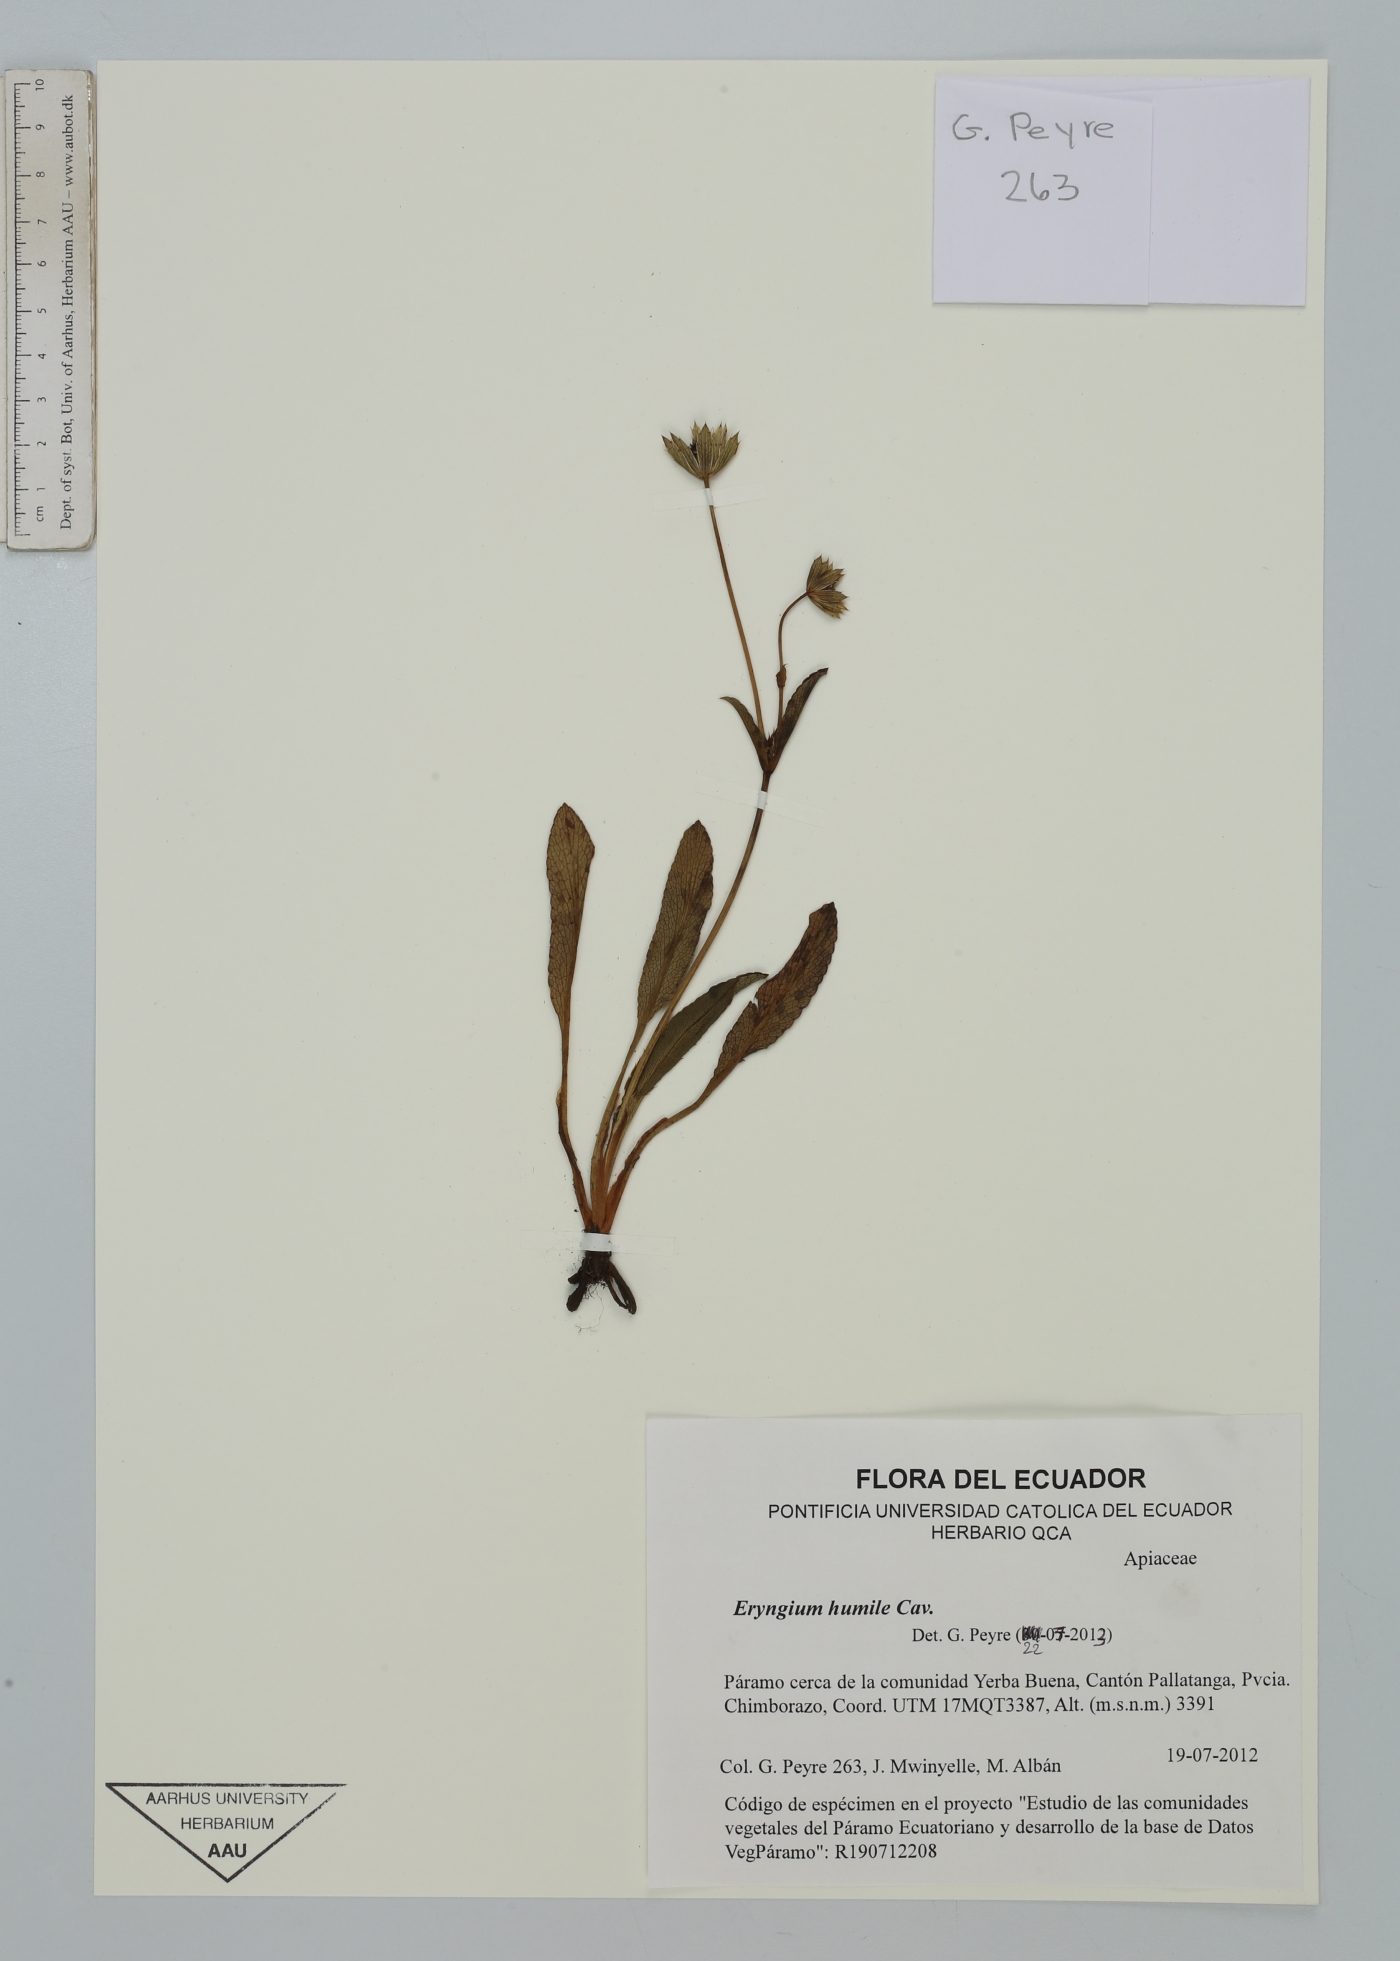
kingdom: Plantae
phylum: Tracheophyta
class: Magnoliopsida
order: Apiales
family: Apiaceae
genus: Eryngium
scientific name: Eryngium humile
